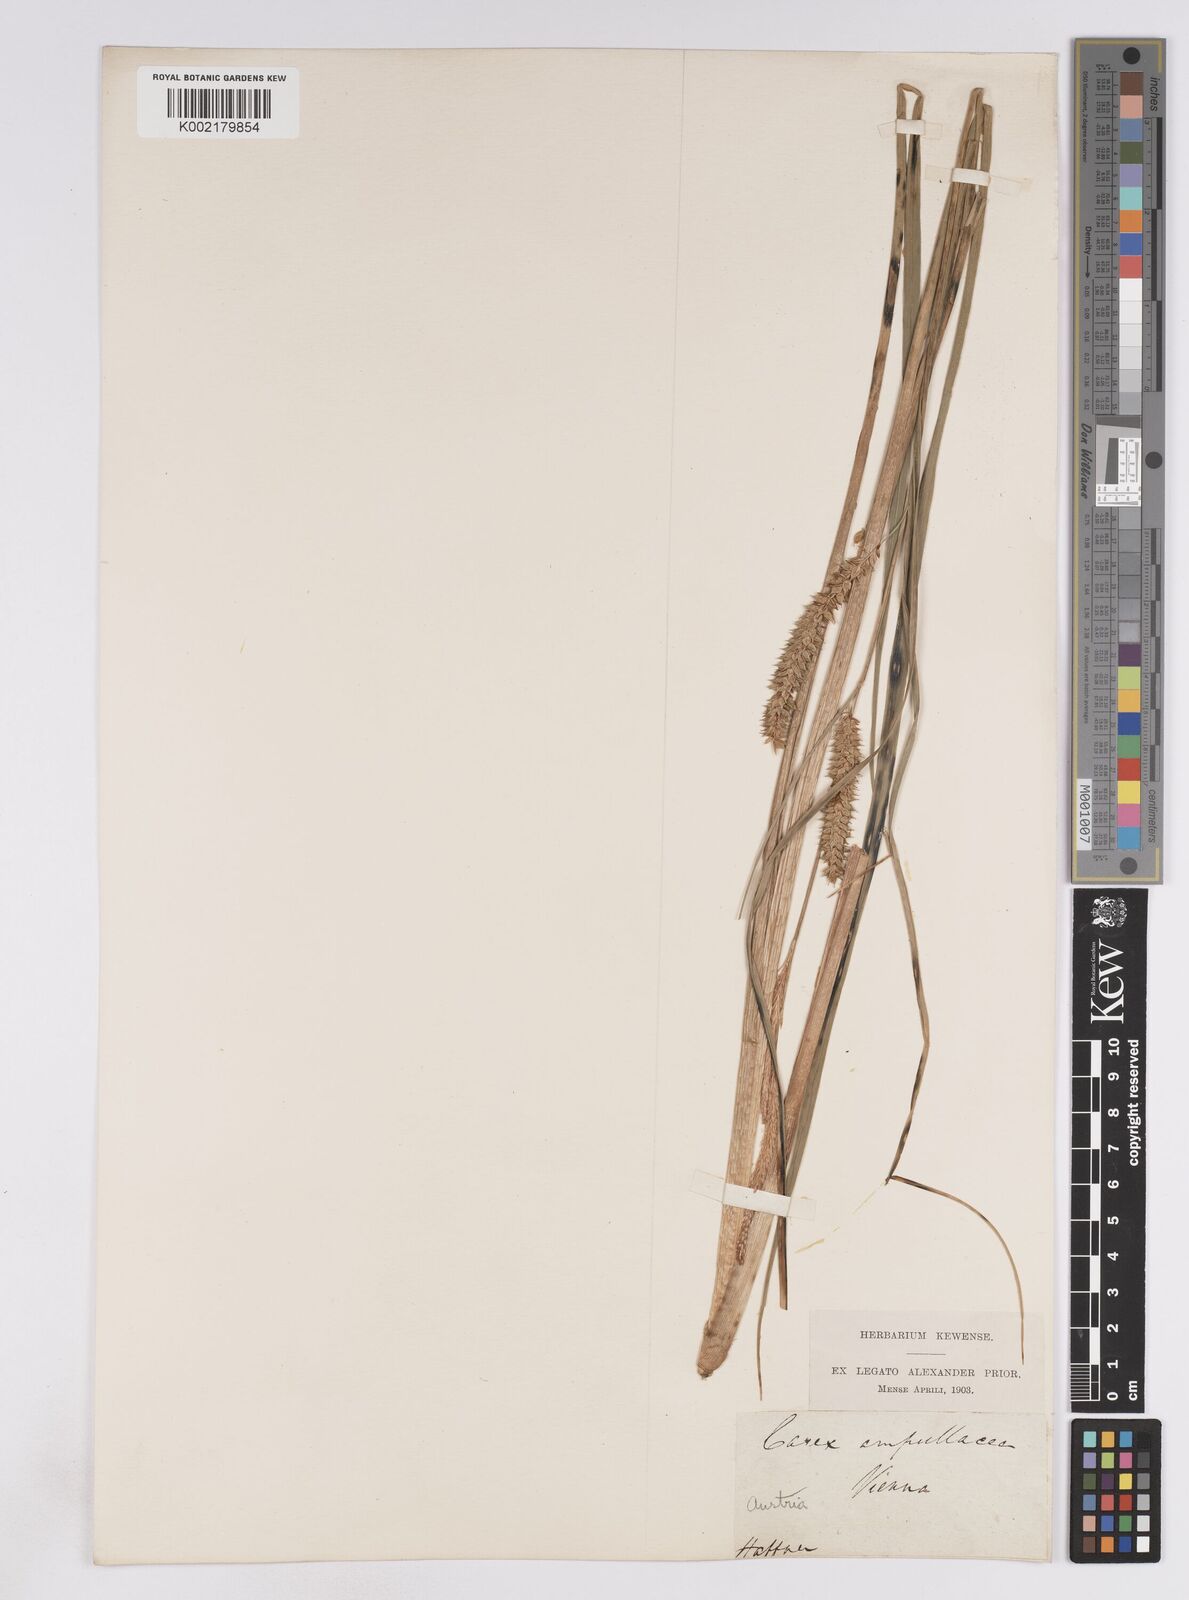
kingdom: Plantae
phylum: Tracheophyta
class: Liliopsida
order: Poales
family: Cyperaceae
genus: Carex
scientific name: Carex rostrata
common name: Bottle sedge
